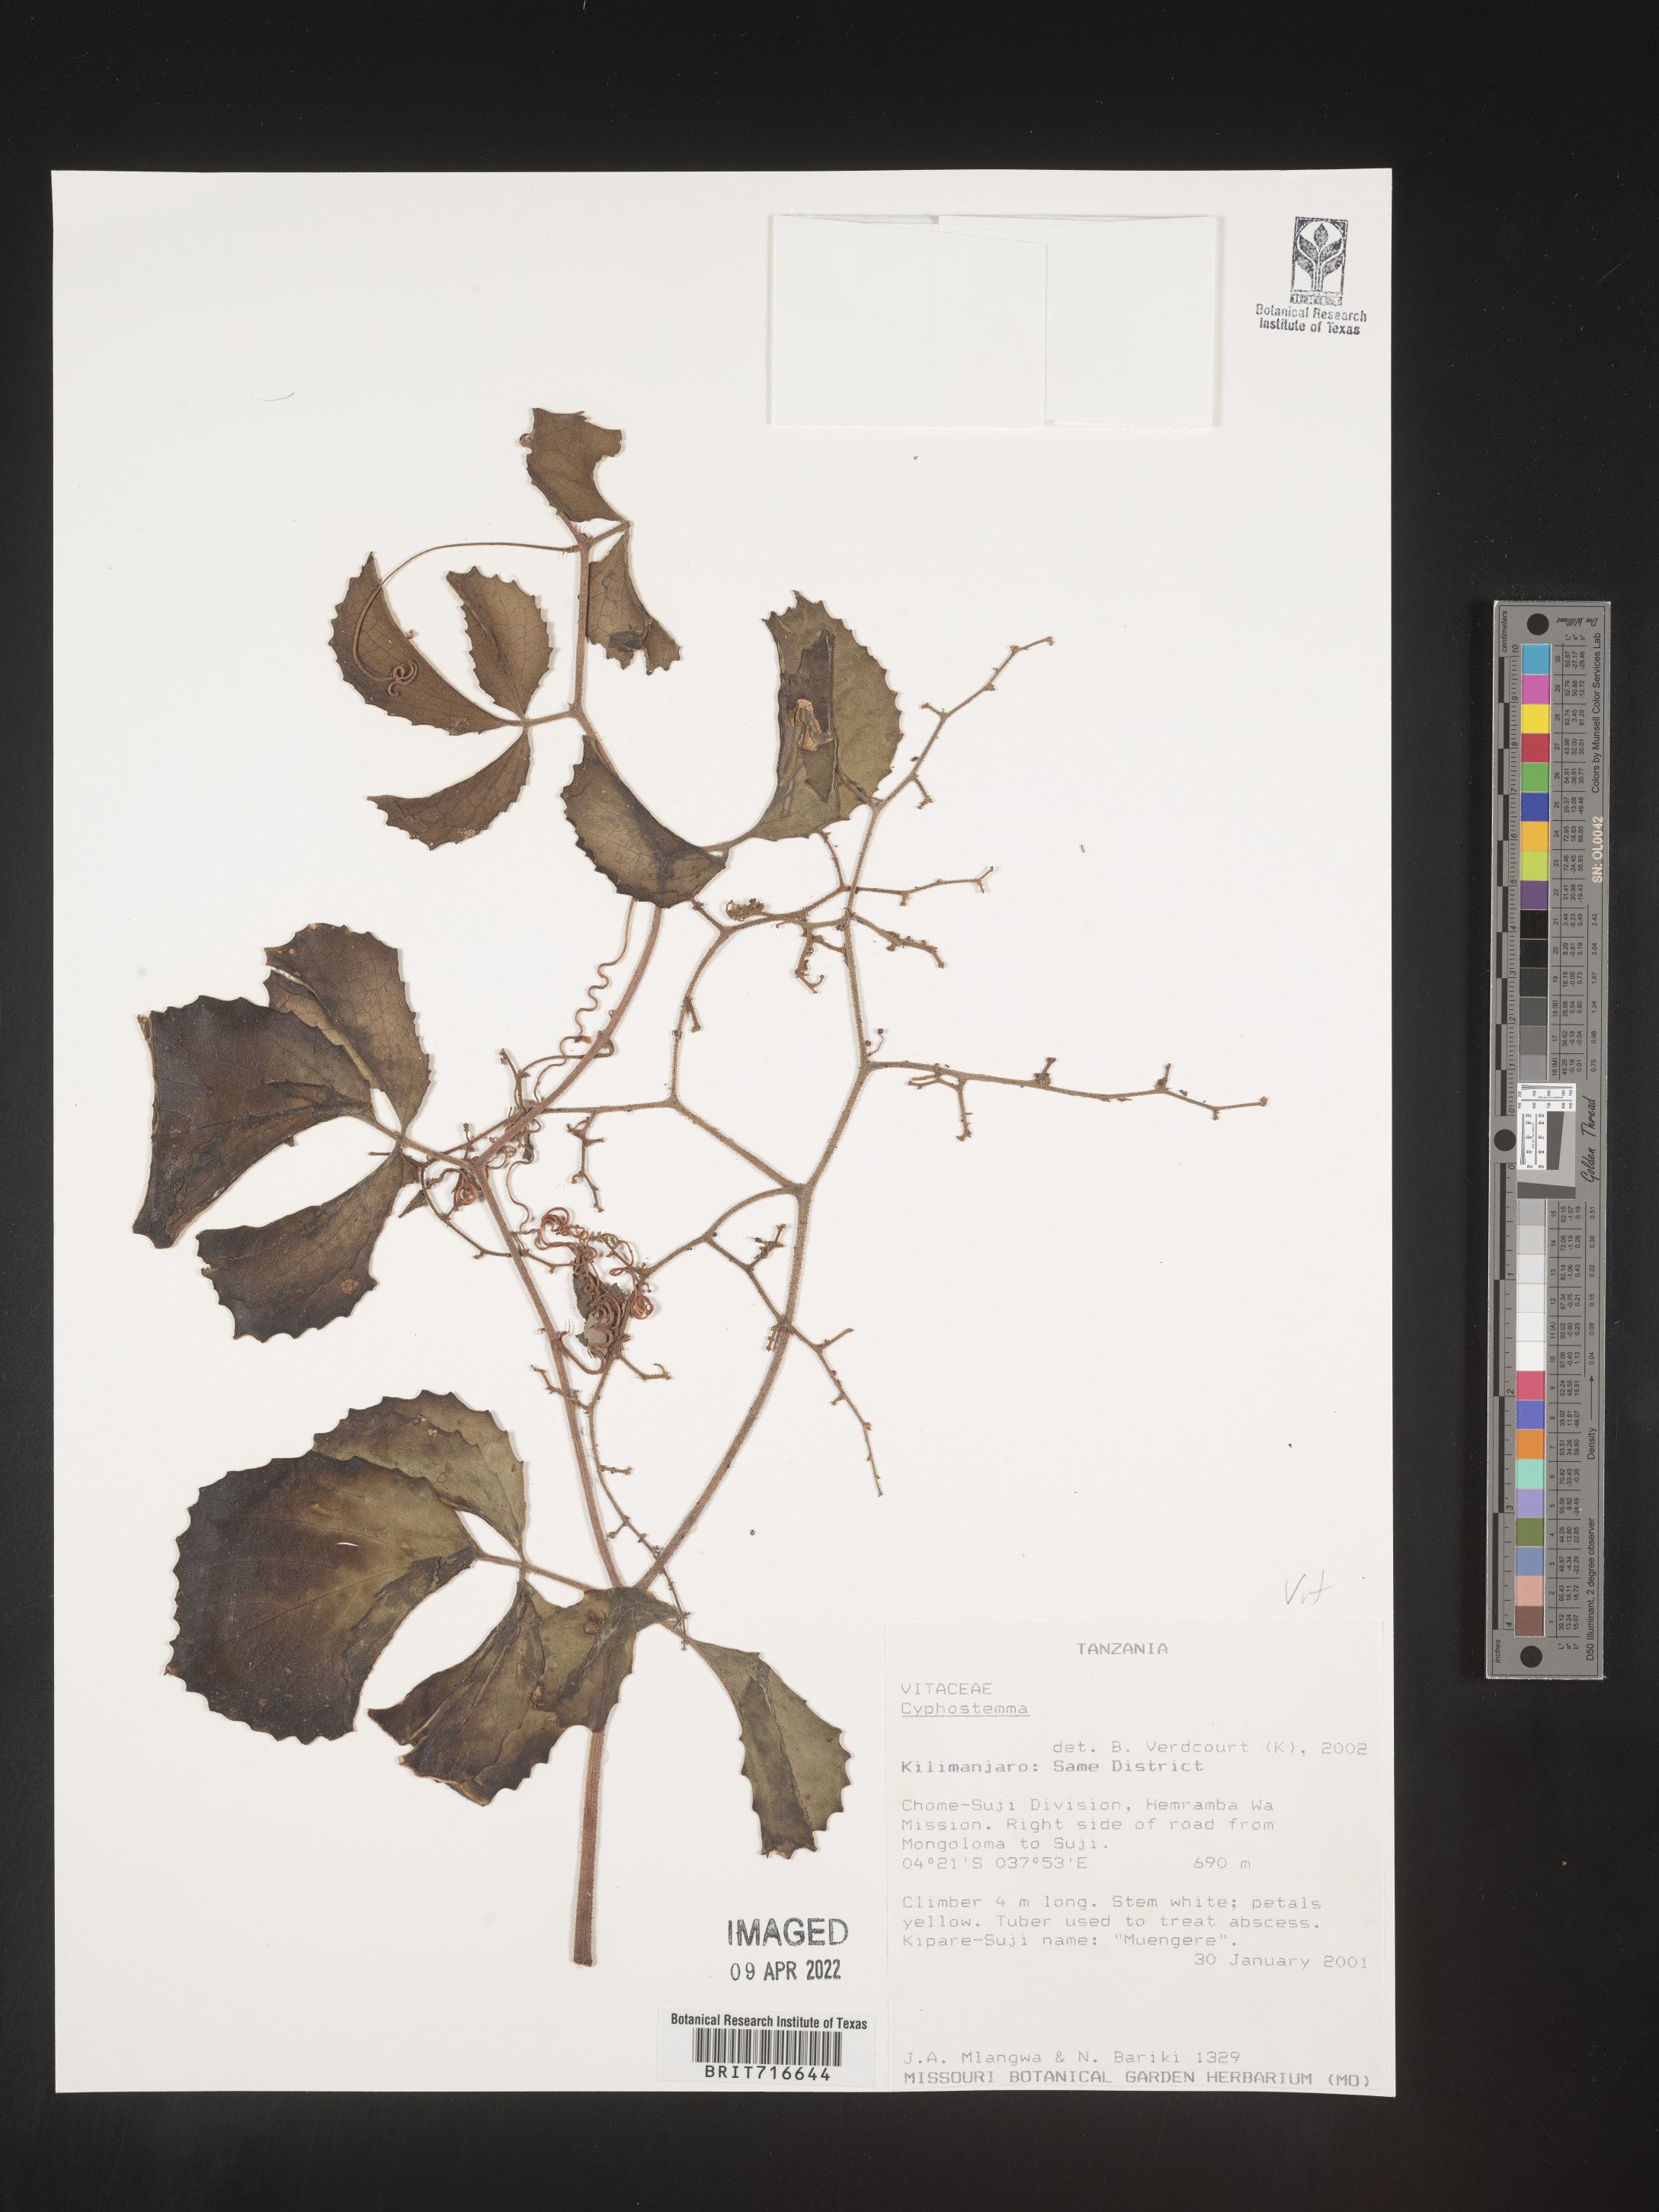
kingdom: Plantae
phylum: Tracheophyta
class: Magnoliopsida
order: Vitales
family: Vitaceae
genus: Cyphostemma
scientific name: Cyphostemma
